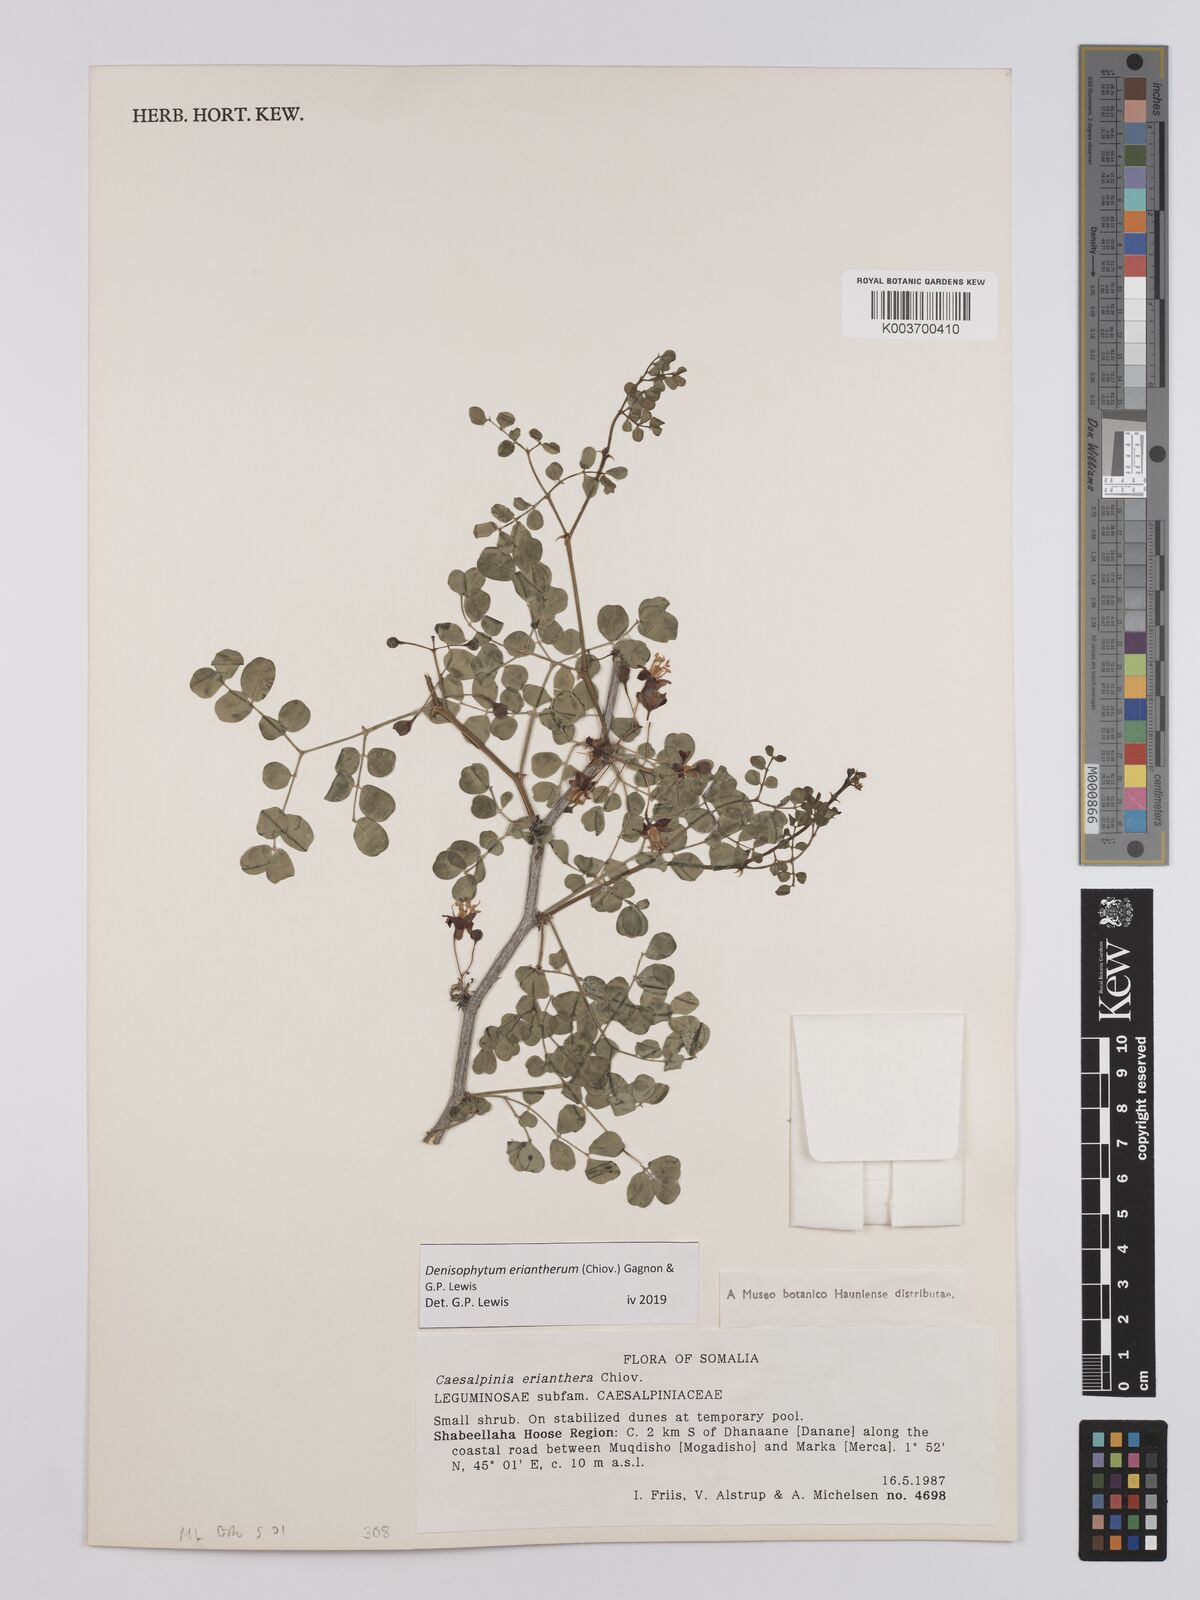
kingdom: Plantae
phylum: Tracheophyta
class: Magnoliopsida
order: Fabales
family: Fabaceae
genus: Denisophytum
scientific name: Denisophytum eriantherum
